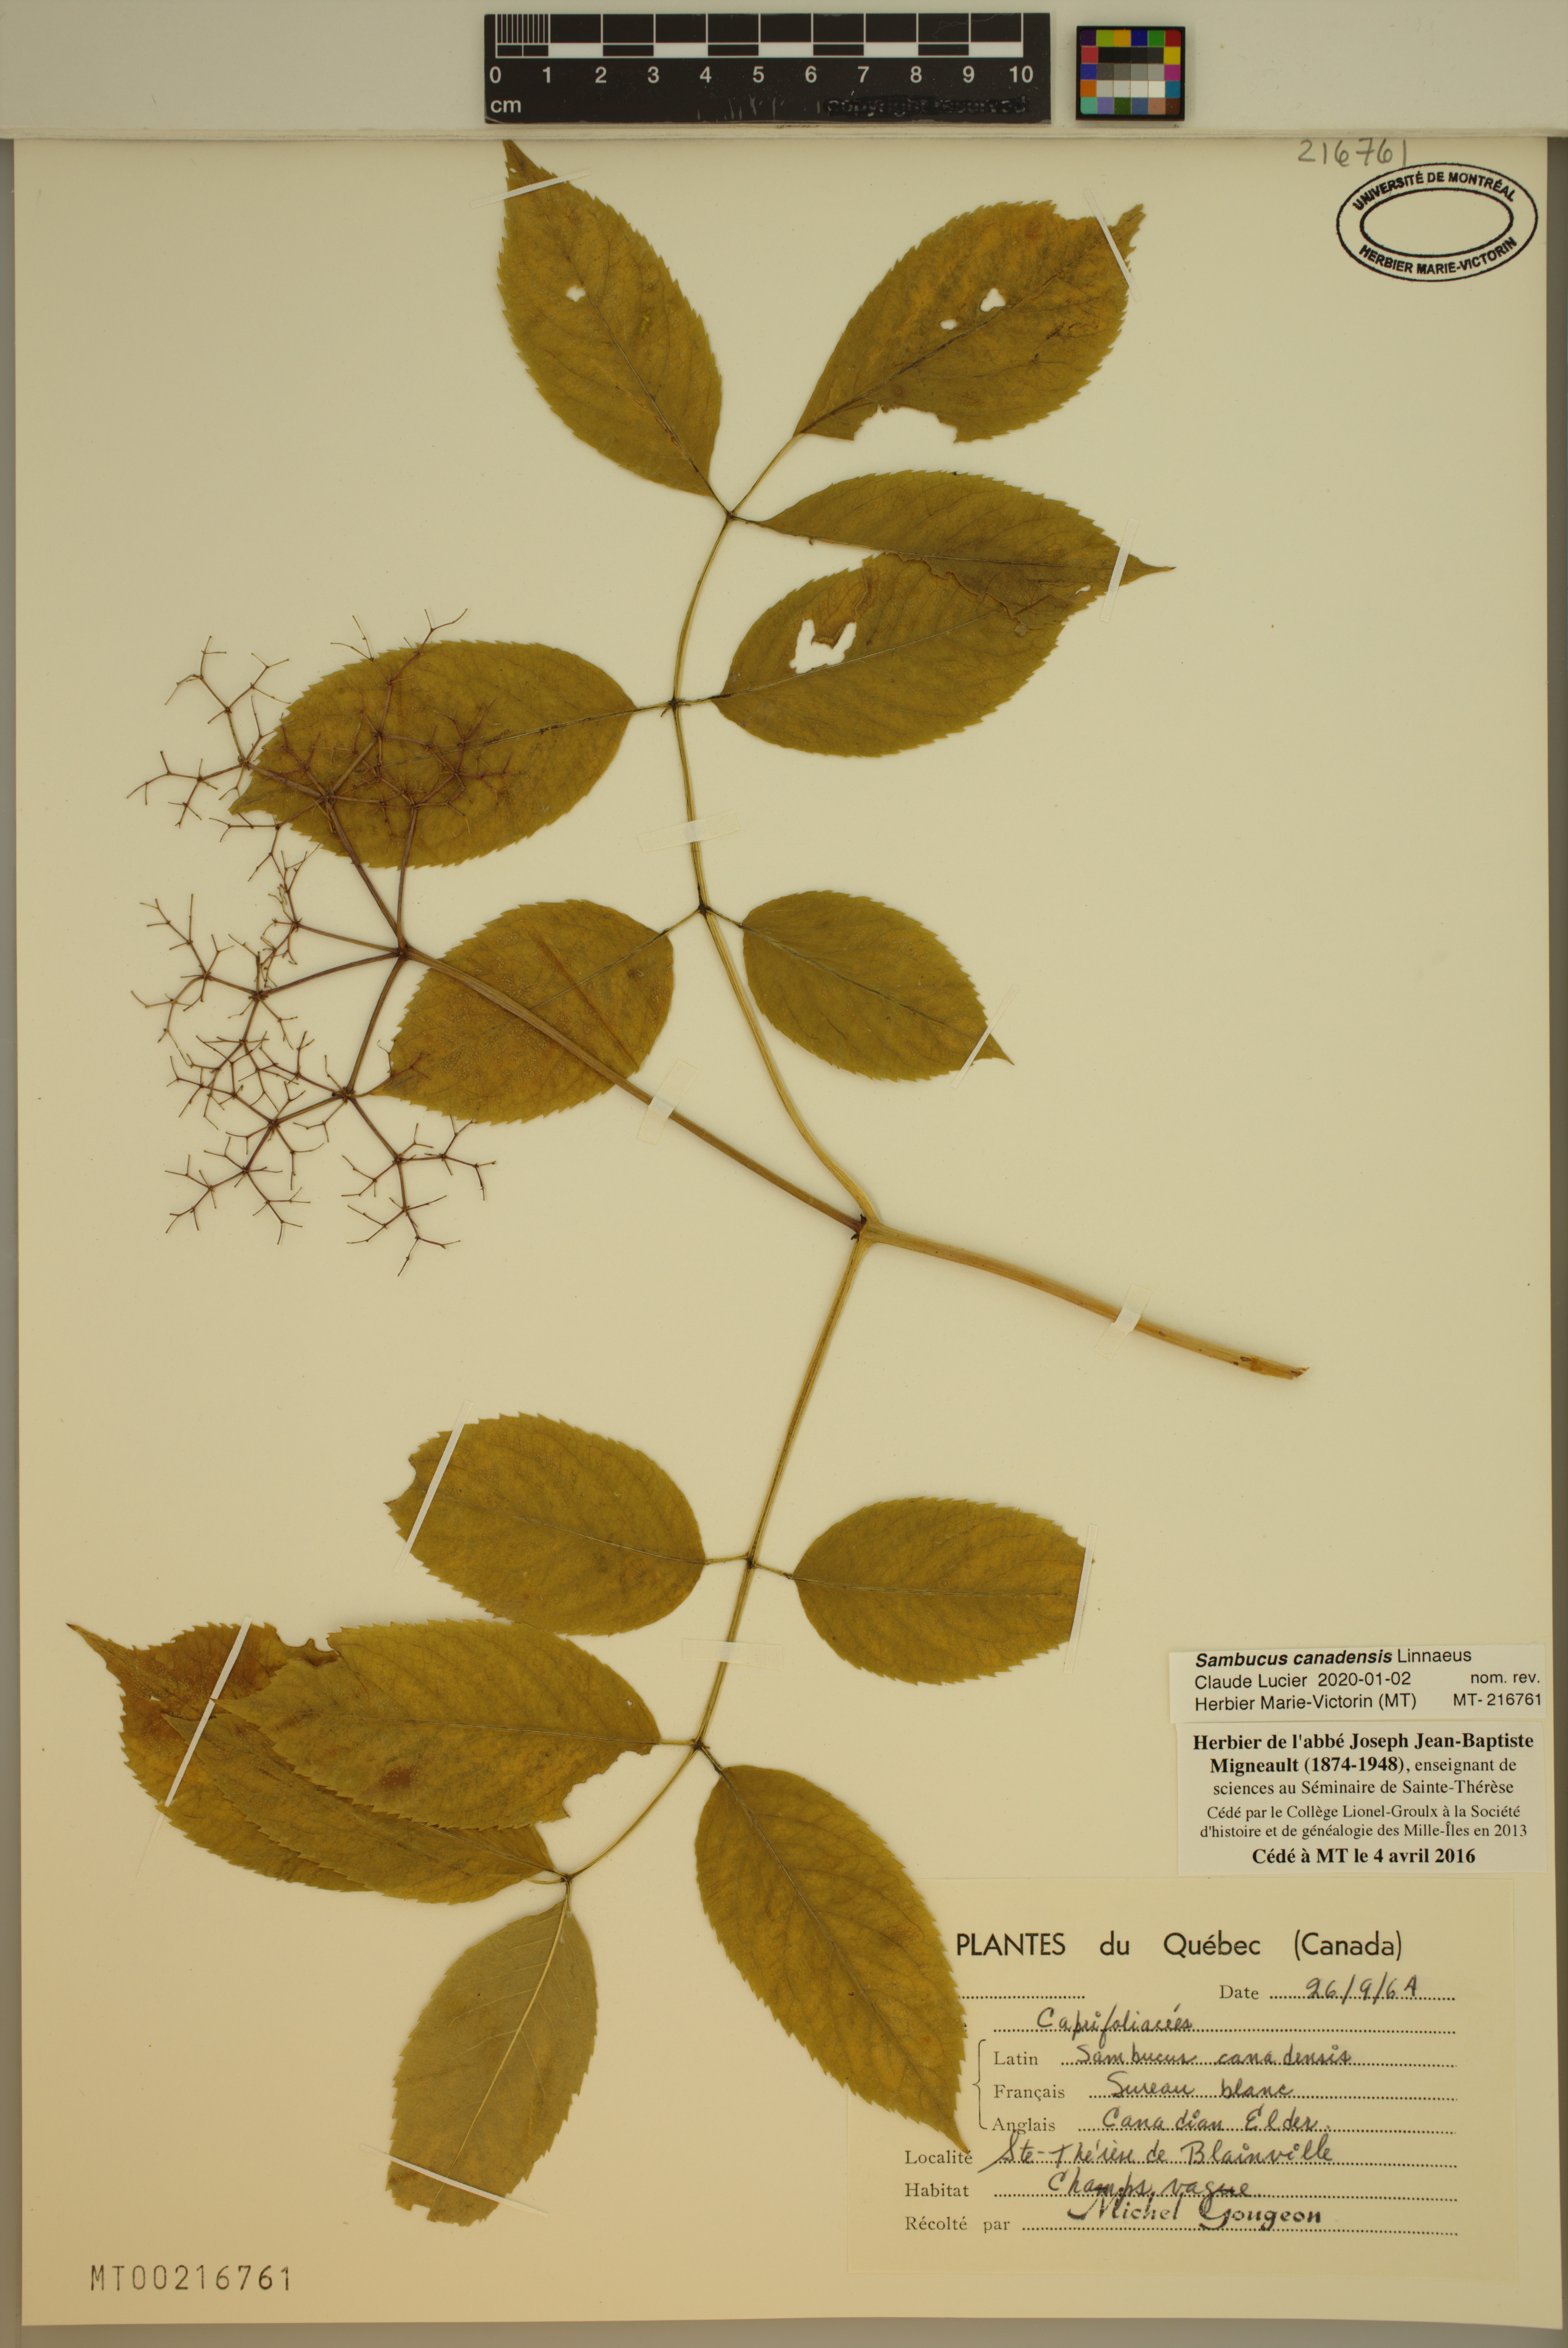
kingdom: Plantae
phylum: Tracheophyta
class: Magnoliopsida
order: Dipsacales
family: Viburnaceae
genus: Sambucus
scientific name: Sambucus canadensis
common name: American elder
